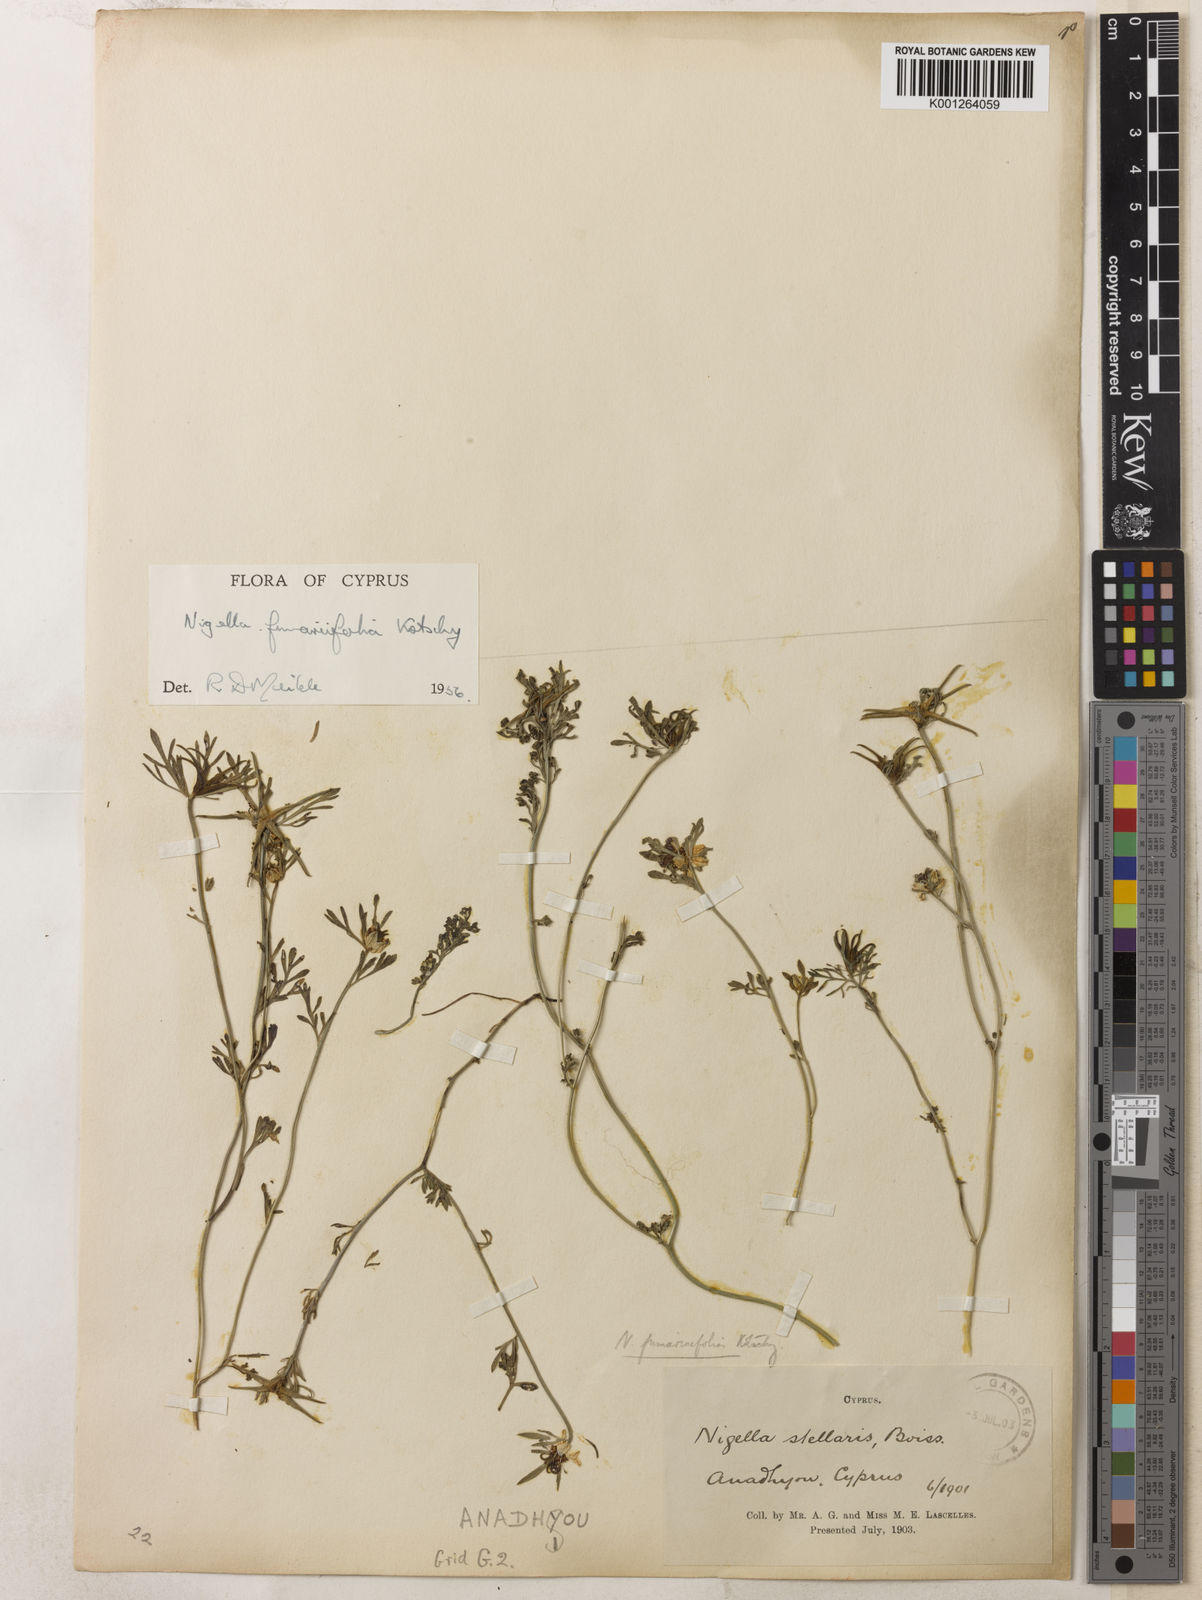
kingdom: Plantae
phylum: Tracheophyta
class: Magnoliopsida
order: Ranunculales
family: Ranunculaceae
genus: Nigella
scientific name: Nigella
